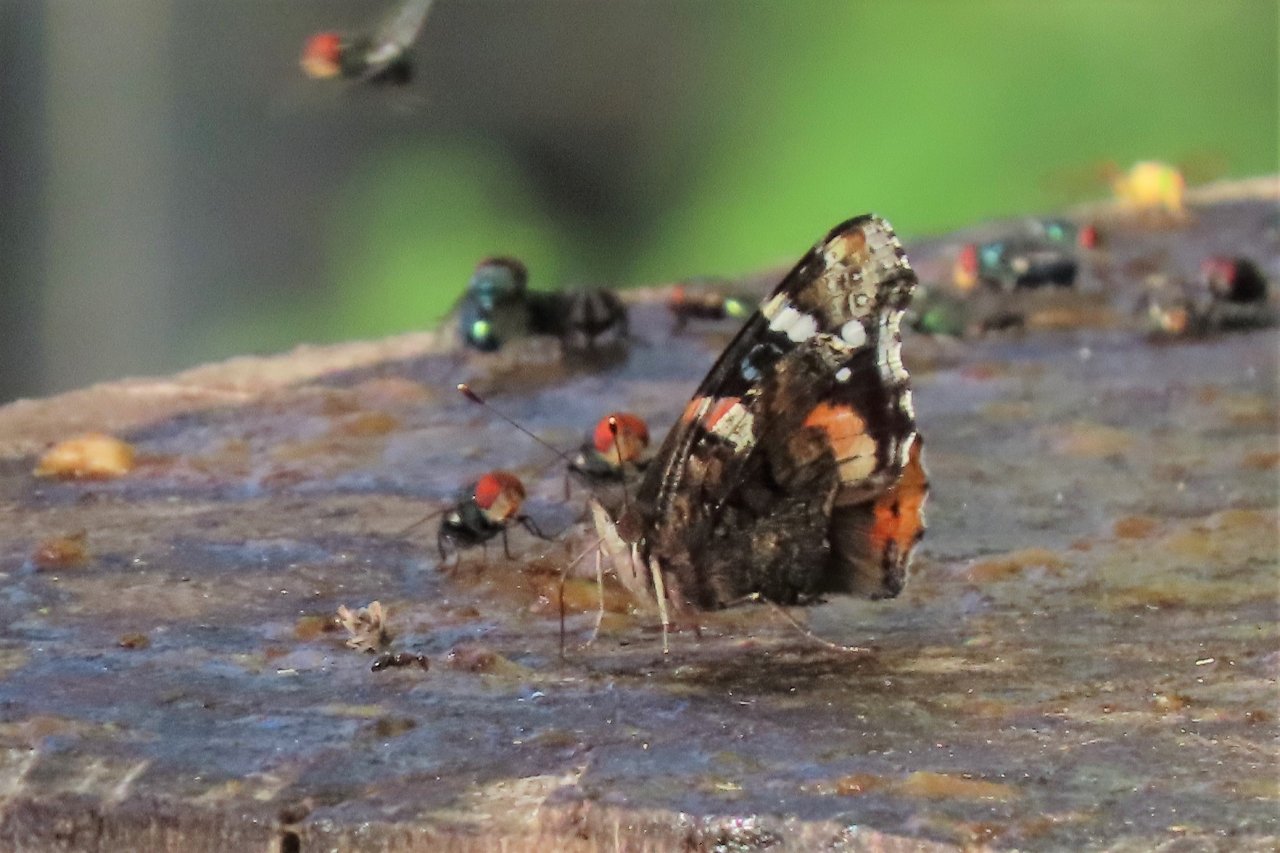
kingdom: Animalia
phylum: Arthropoda
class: Insecta
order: Lepidoptera
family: Nymphalidae
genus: Vanessa
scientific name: Vanessa atalanta
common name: Red Admiral
